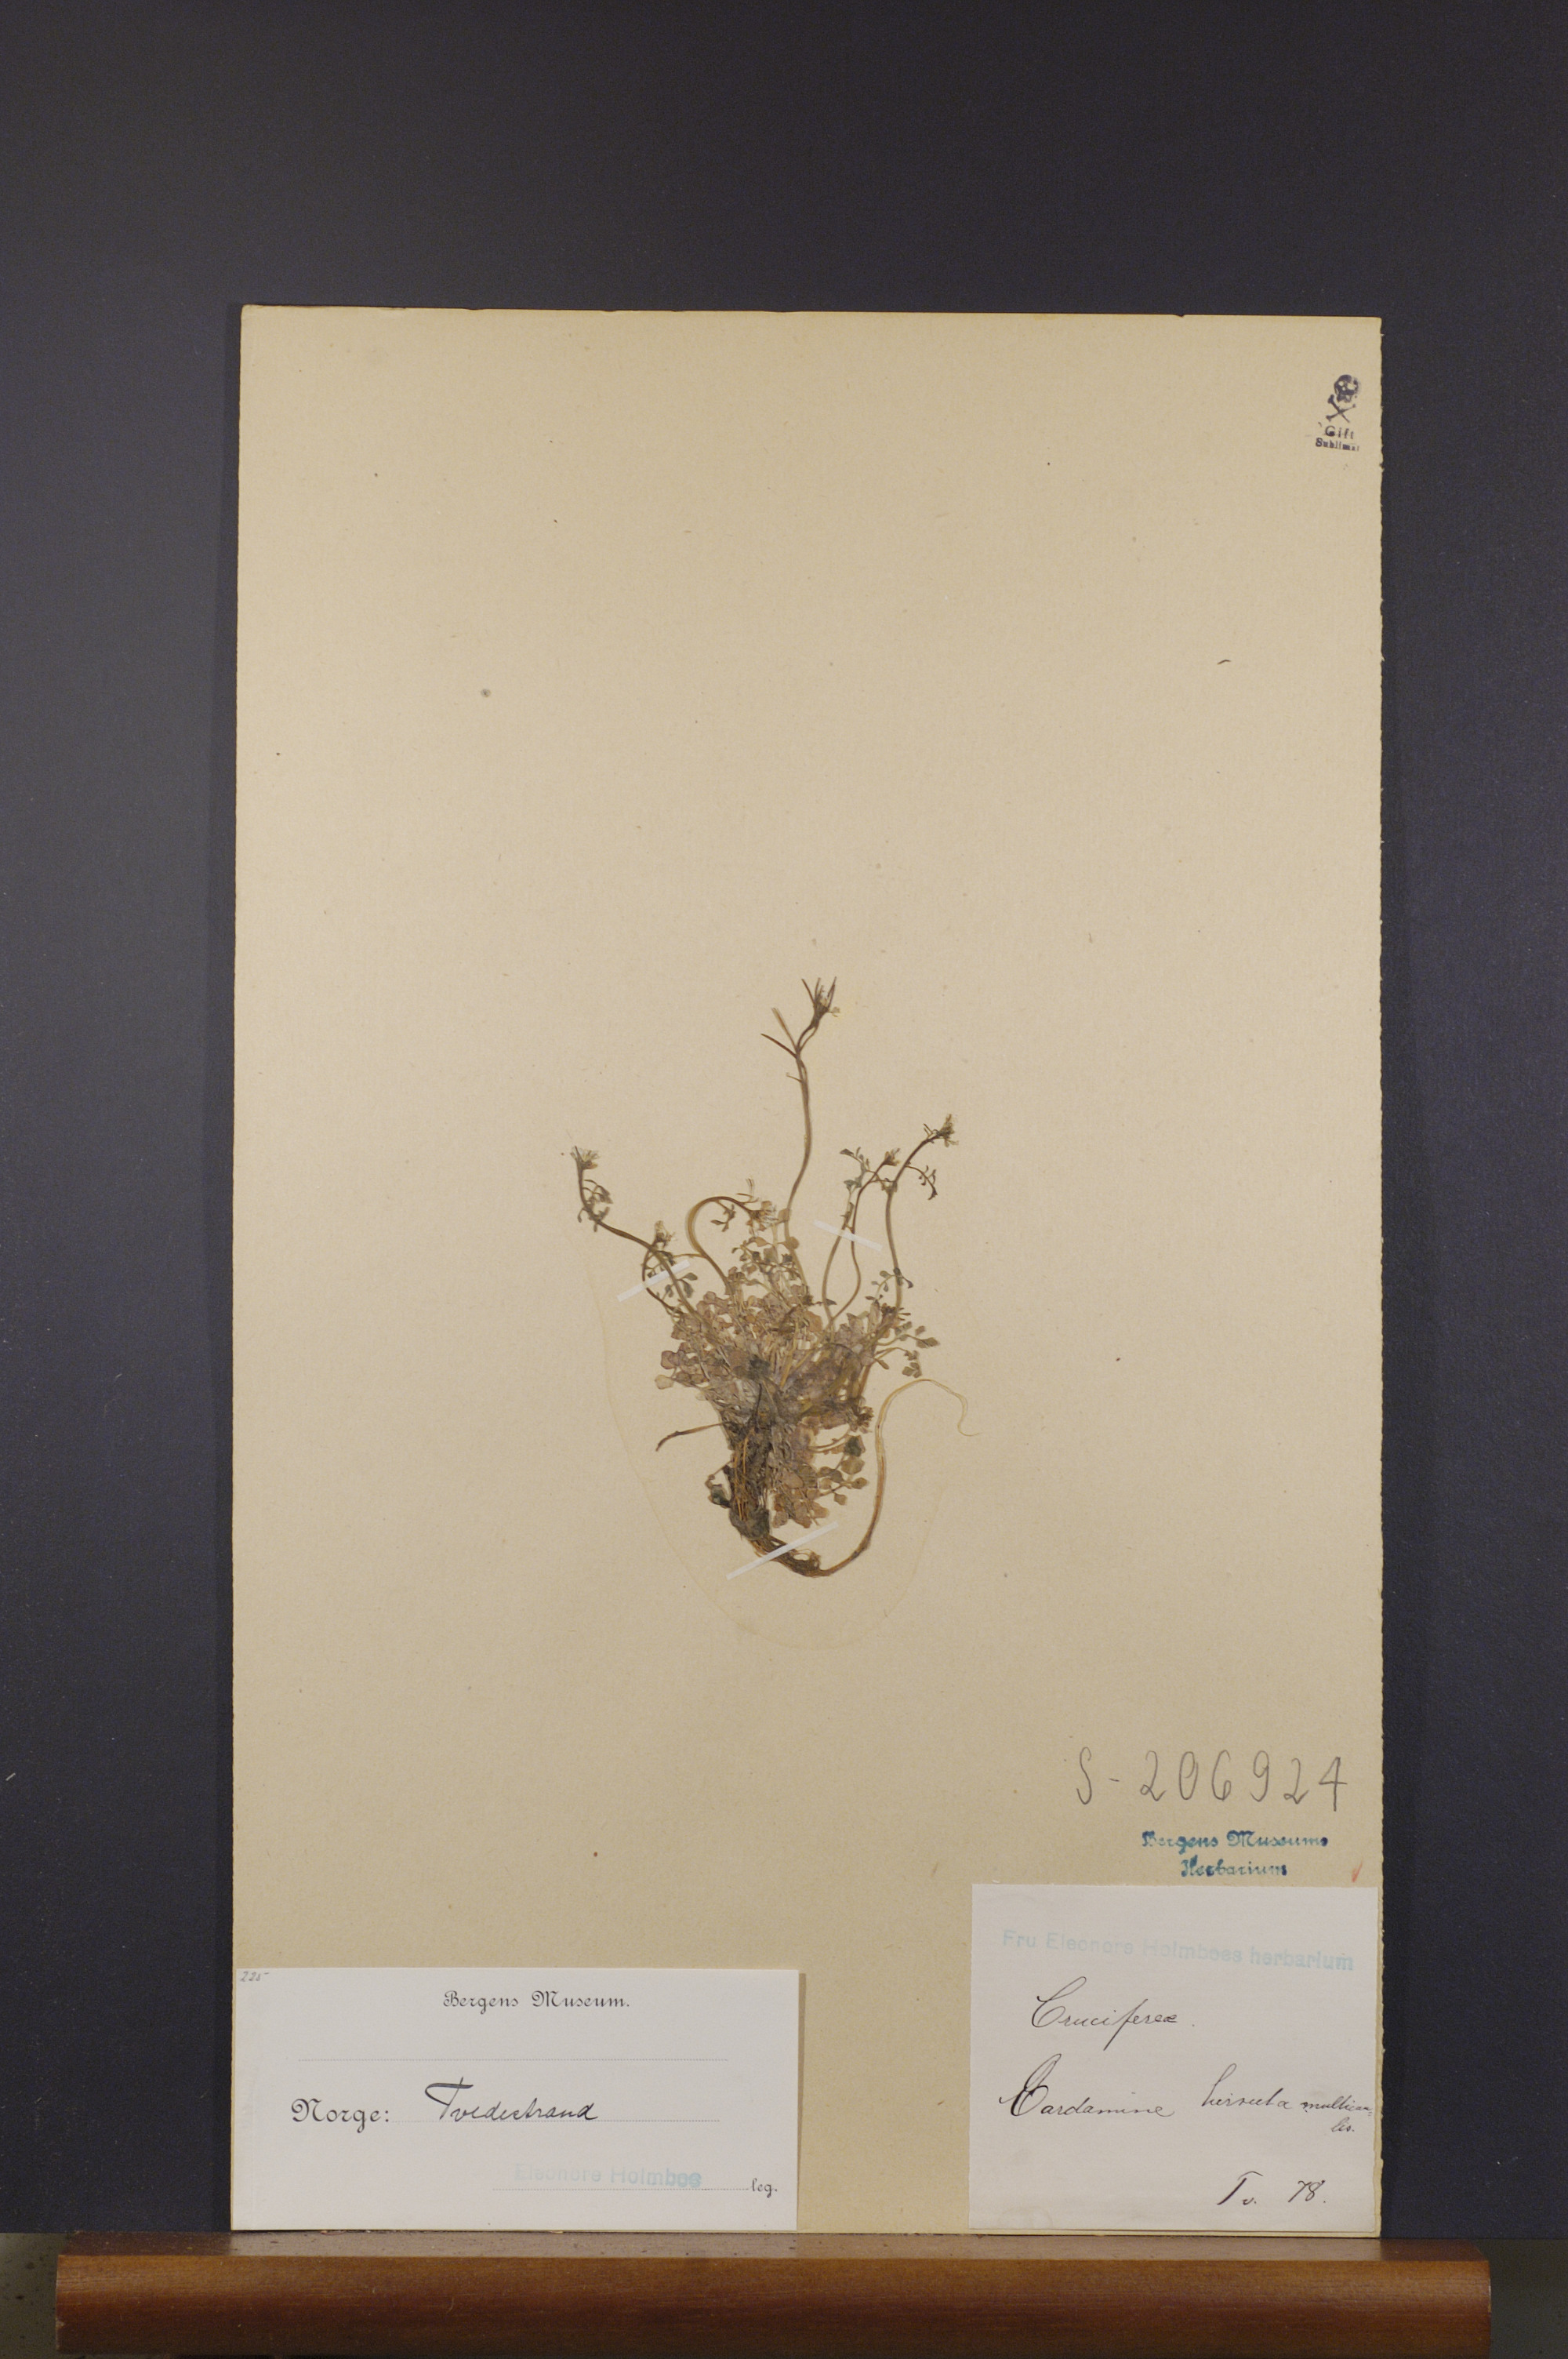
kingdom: Plantae
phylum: Tracheophyta
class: Magnoliopsida
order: Brassicales
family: Brassicaceae
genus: Cardamine
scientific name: Cardamine hirsuta
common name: Hairy bittercress
